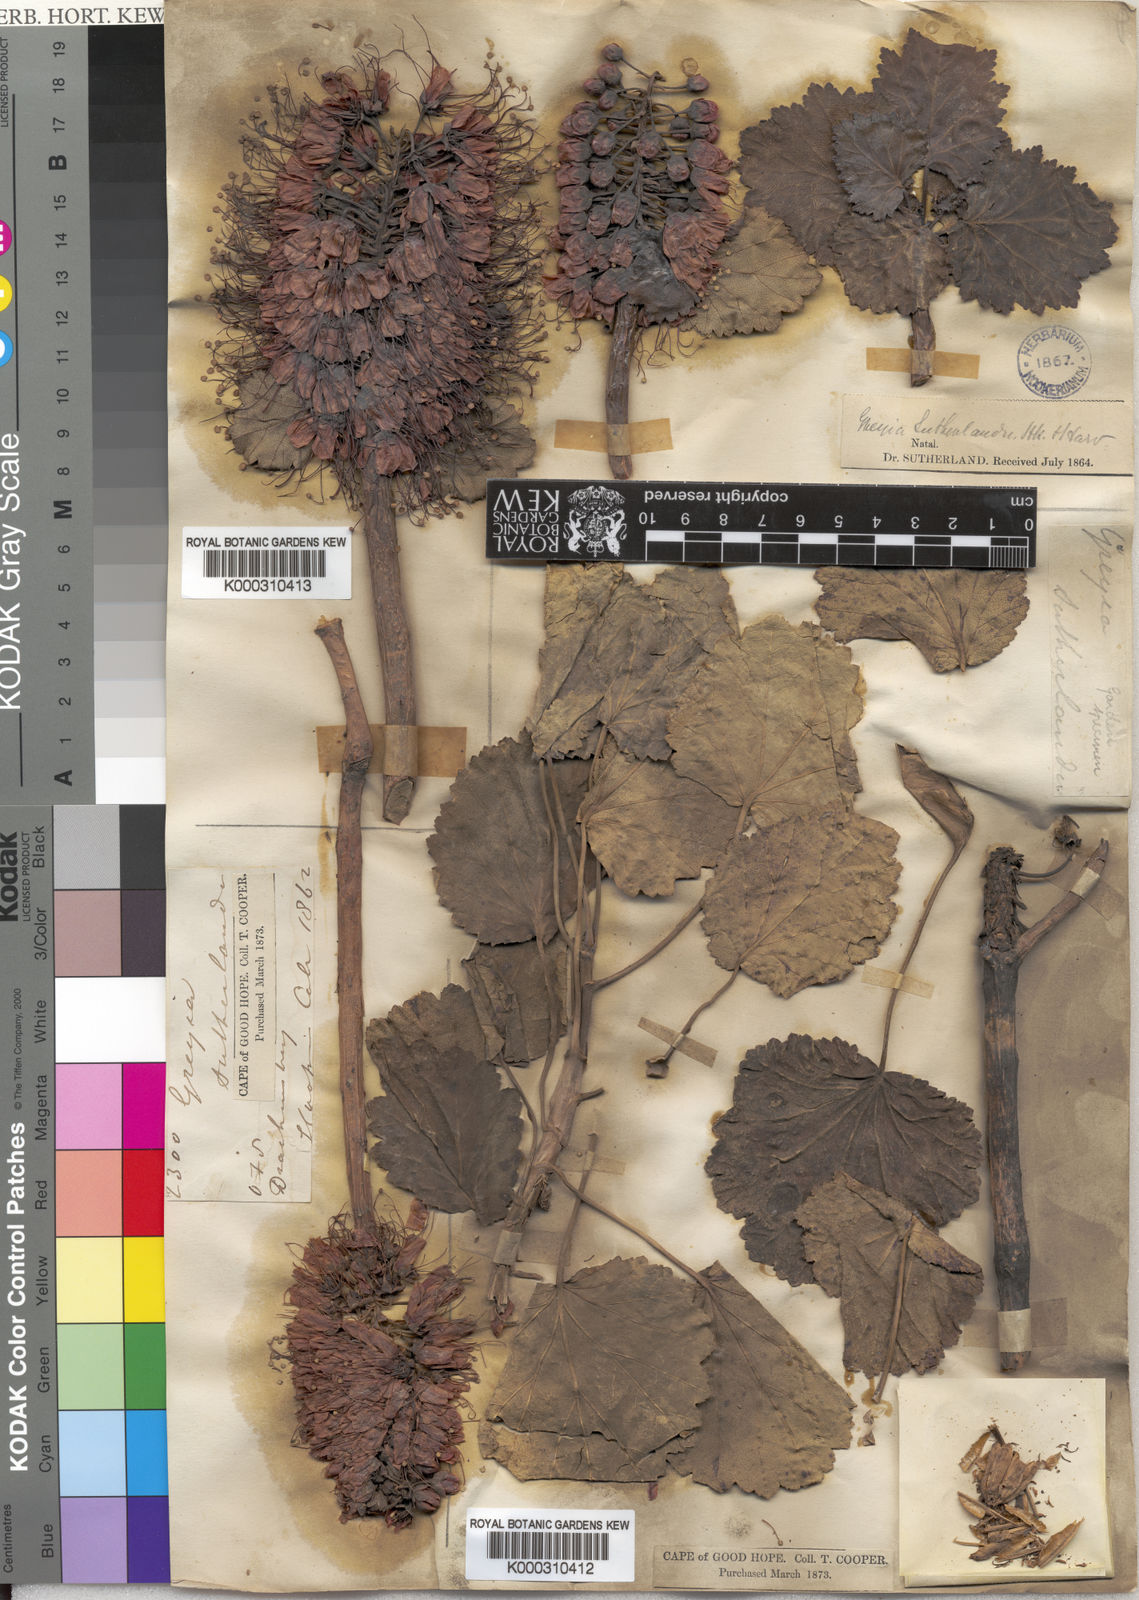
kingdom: Plantae
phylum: Tracheophyta
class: Magnoliopsida
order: Geraniales
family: Francoaceae
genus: Greyia
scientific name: Greyia sutherlandii
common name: Glossy bottlebrush
